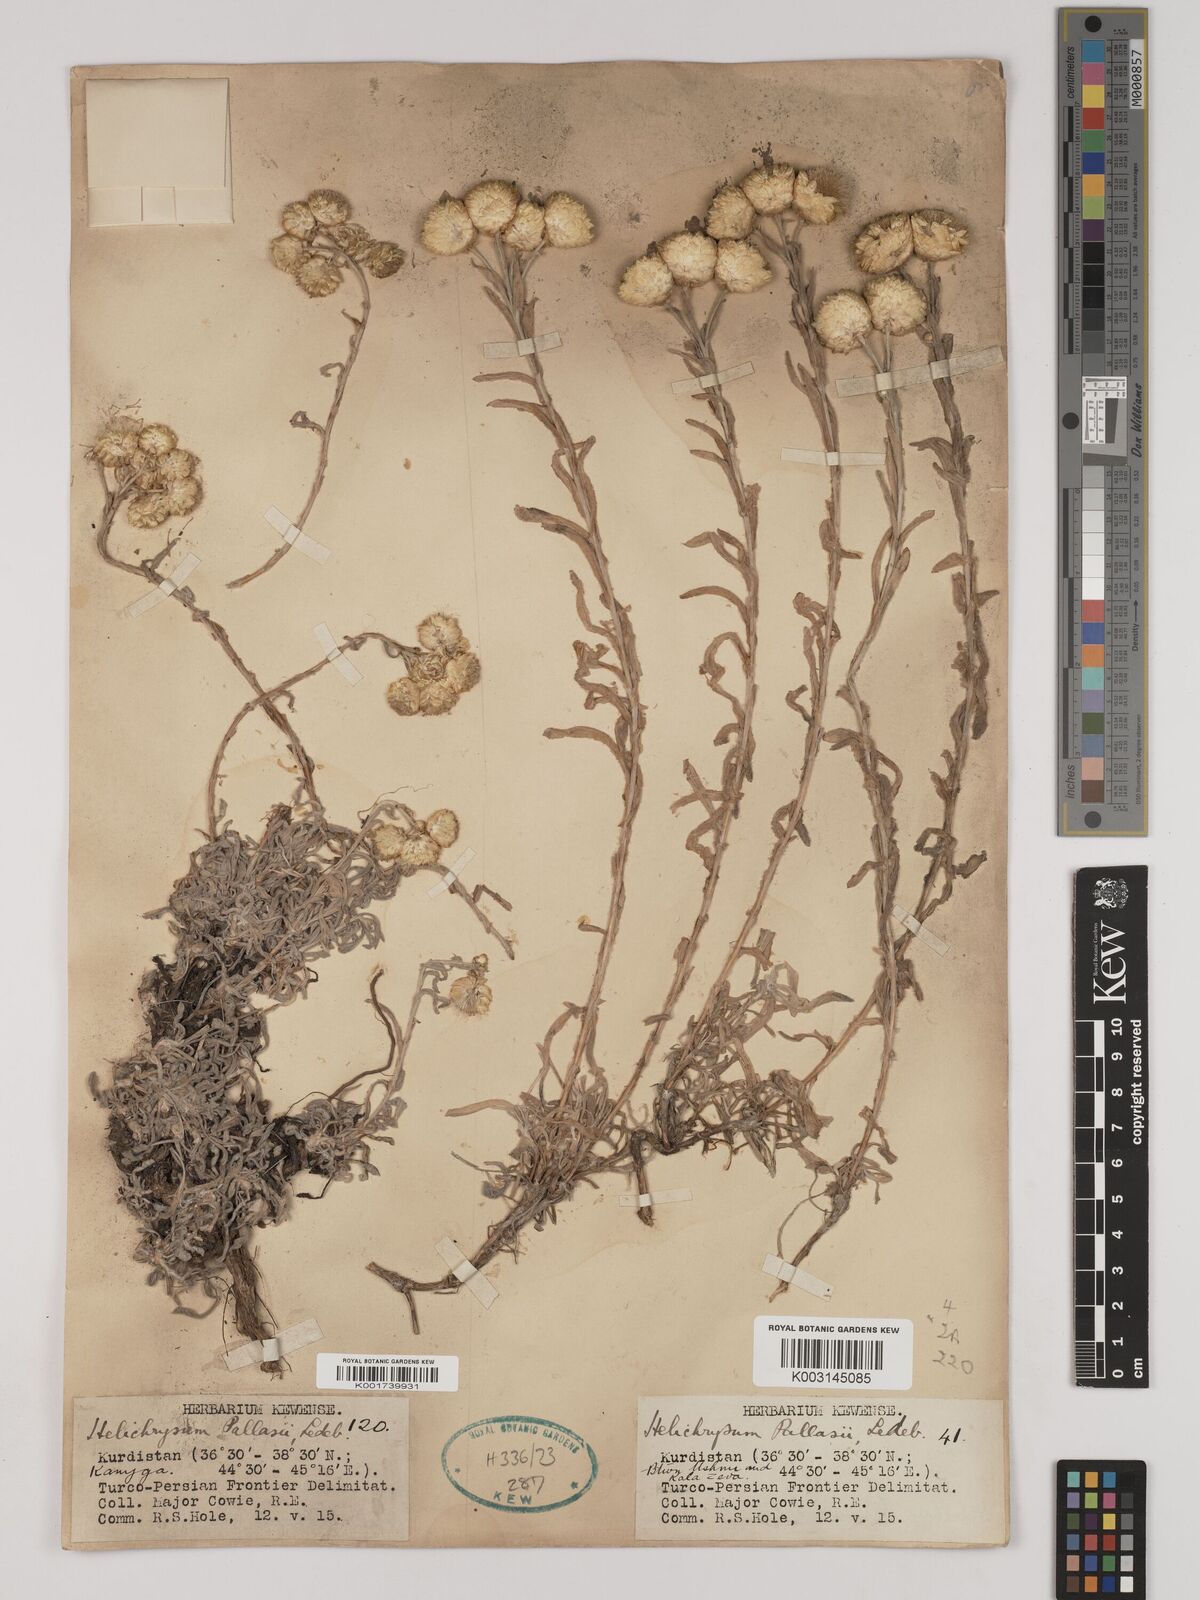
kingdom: Plantae
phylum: Tracheophyta
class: Magnoliopsida
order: Asterales
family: Asteraceae
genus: Helichrysum
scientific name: Helichrysum pallasii
